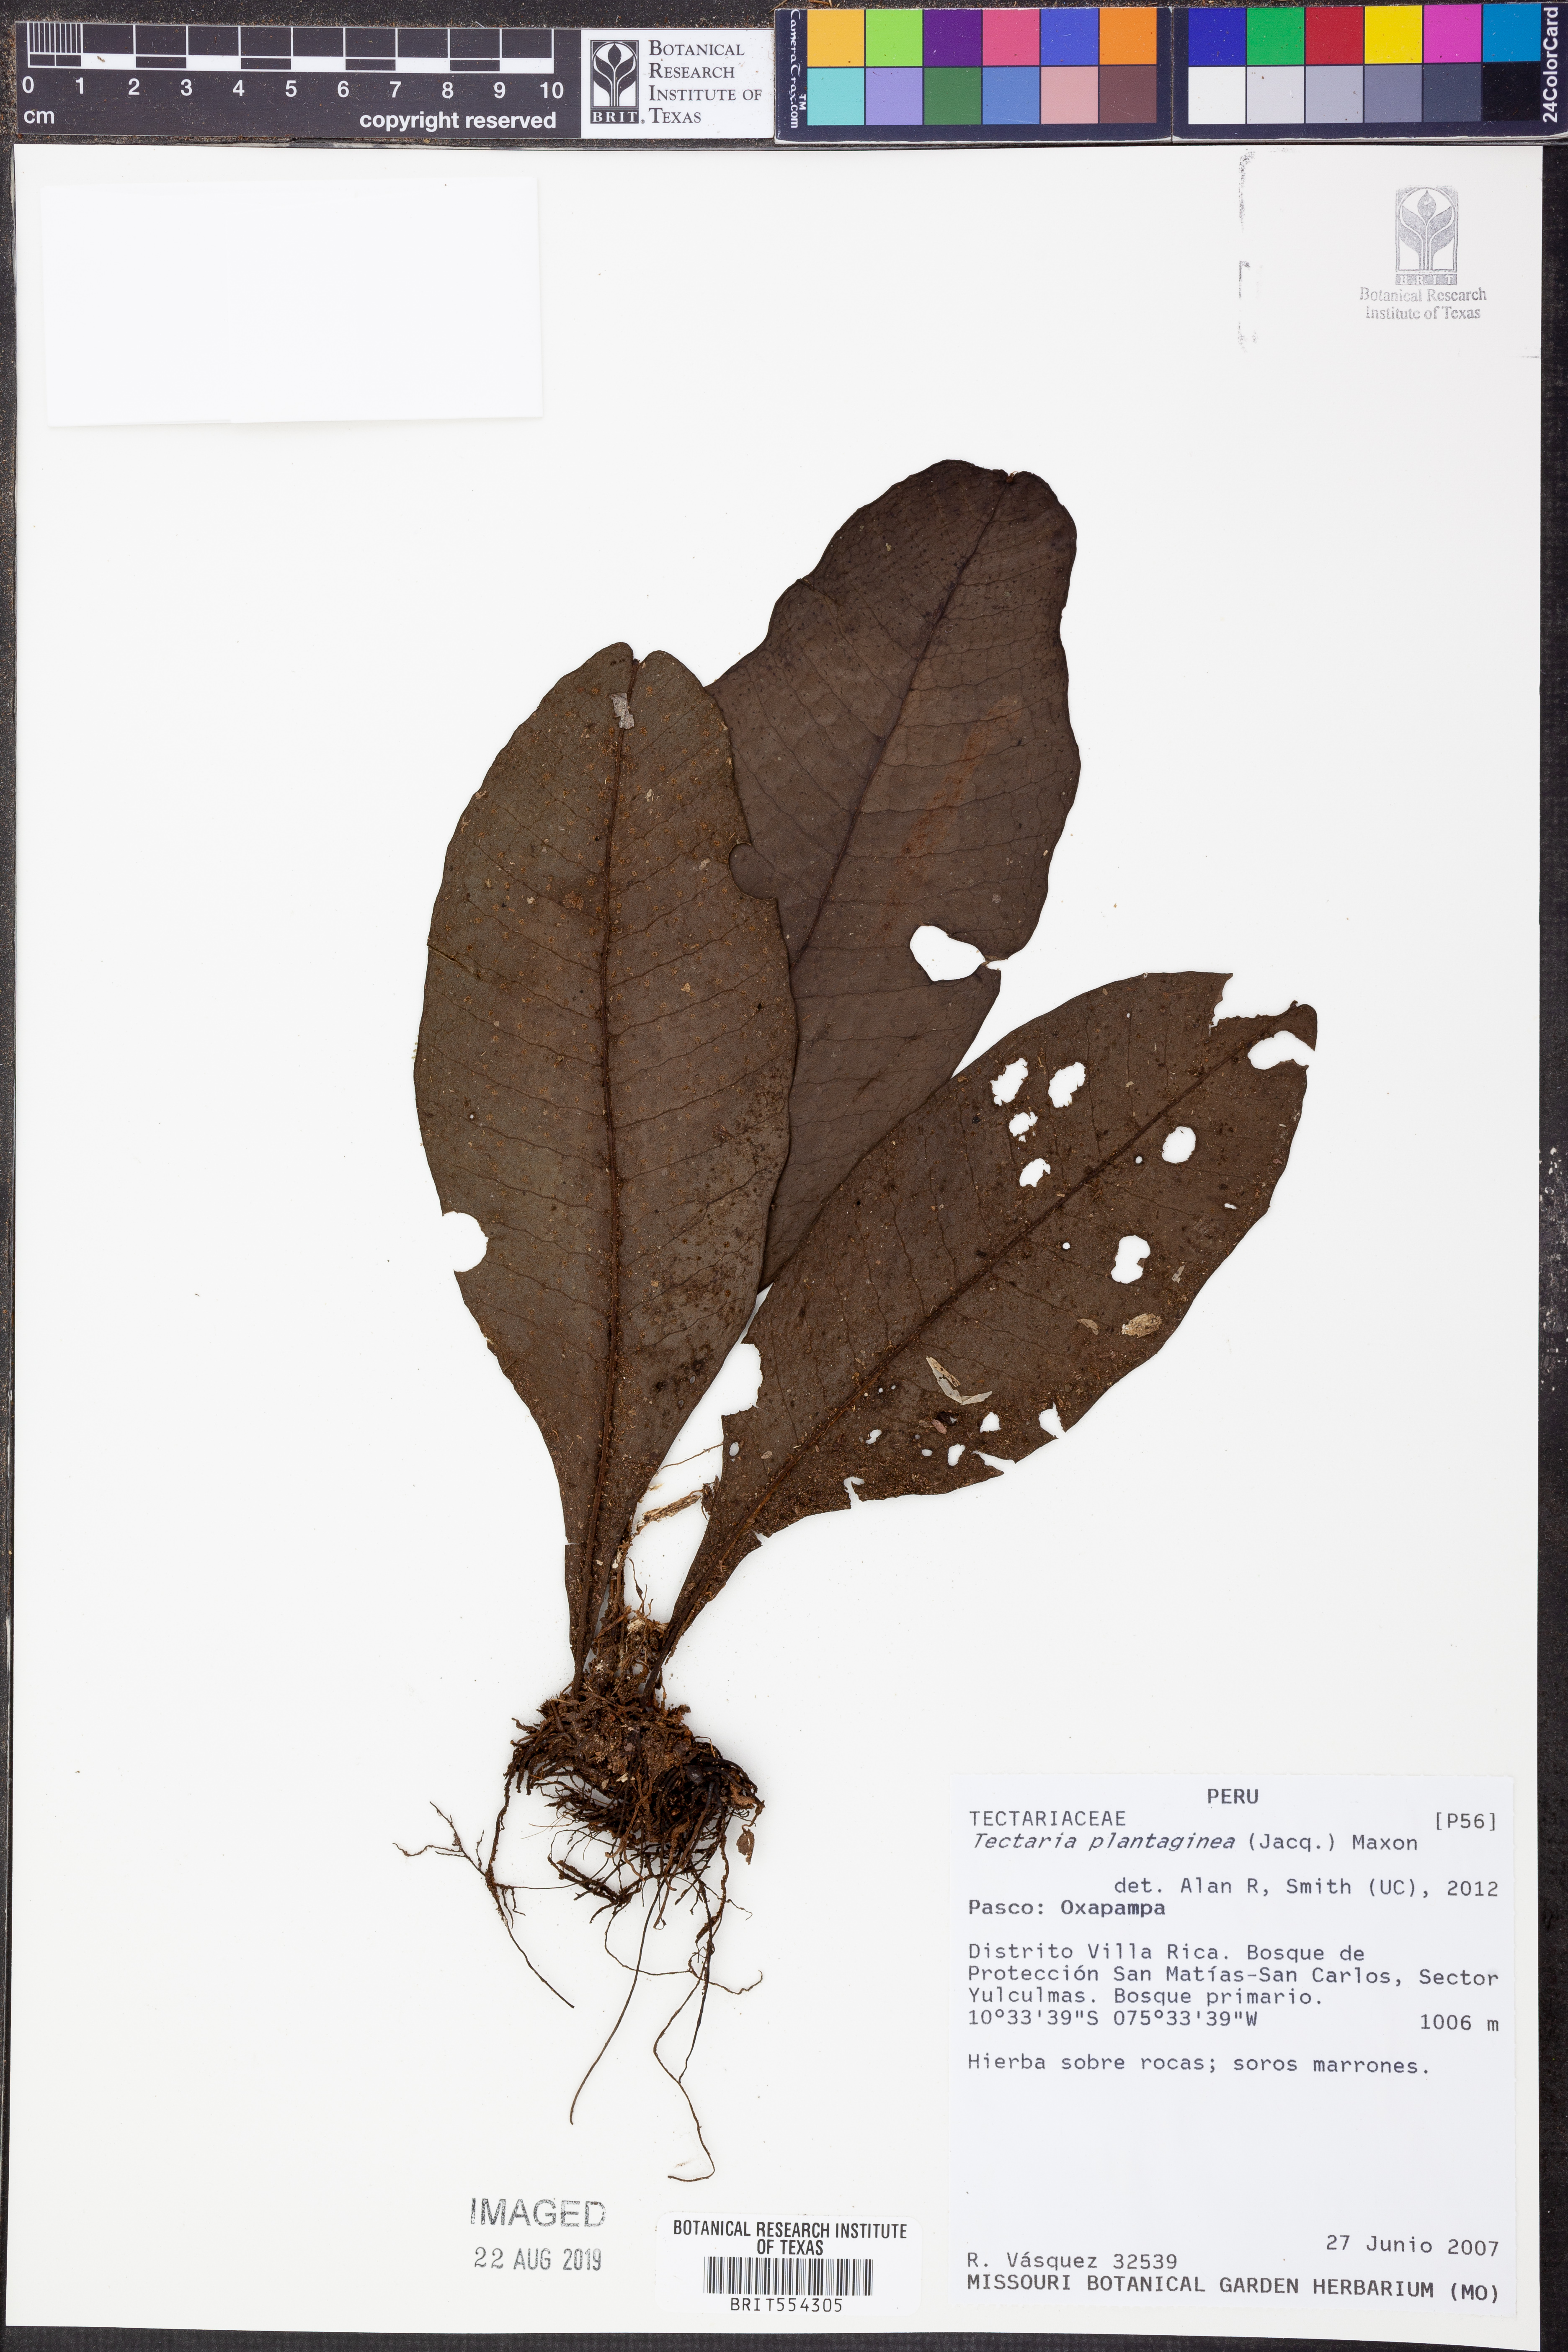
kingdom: Plantae
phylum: Tracheophyta
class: Polypodiopsida
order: Polypodiales
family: Lomariopsidaceae
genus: Dracoglossum
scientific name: Dracoglossum plantagineum
